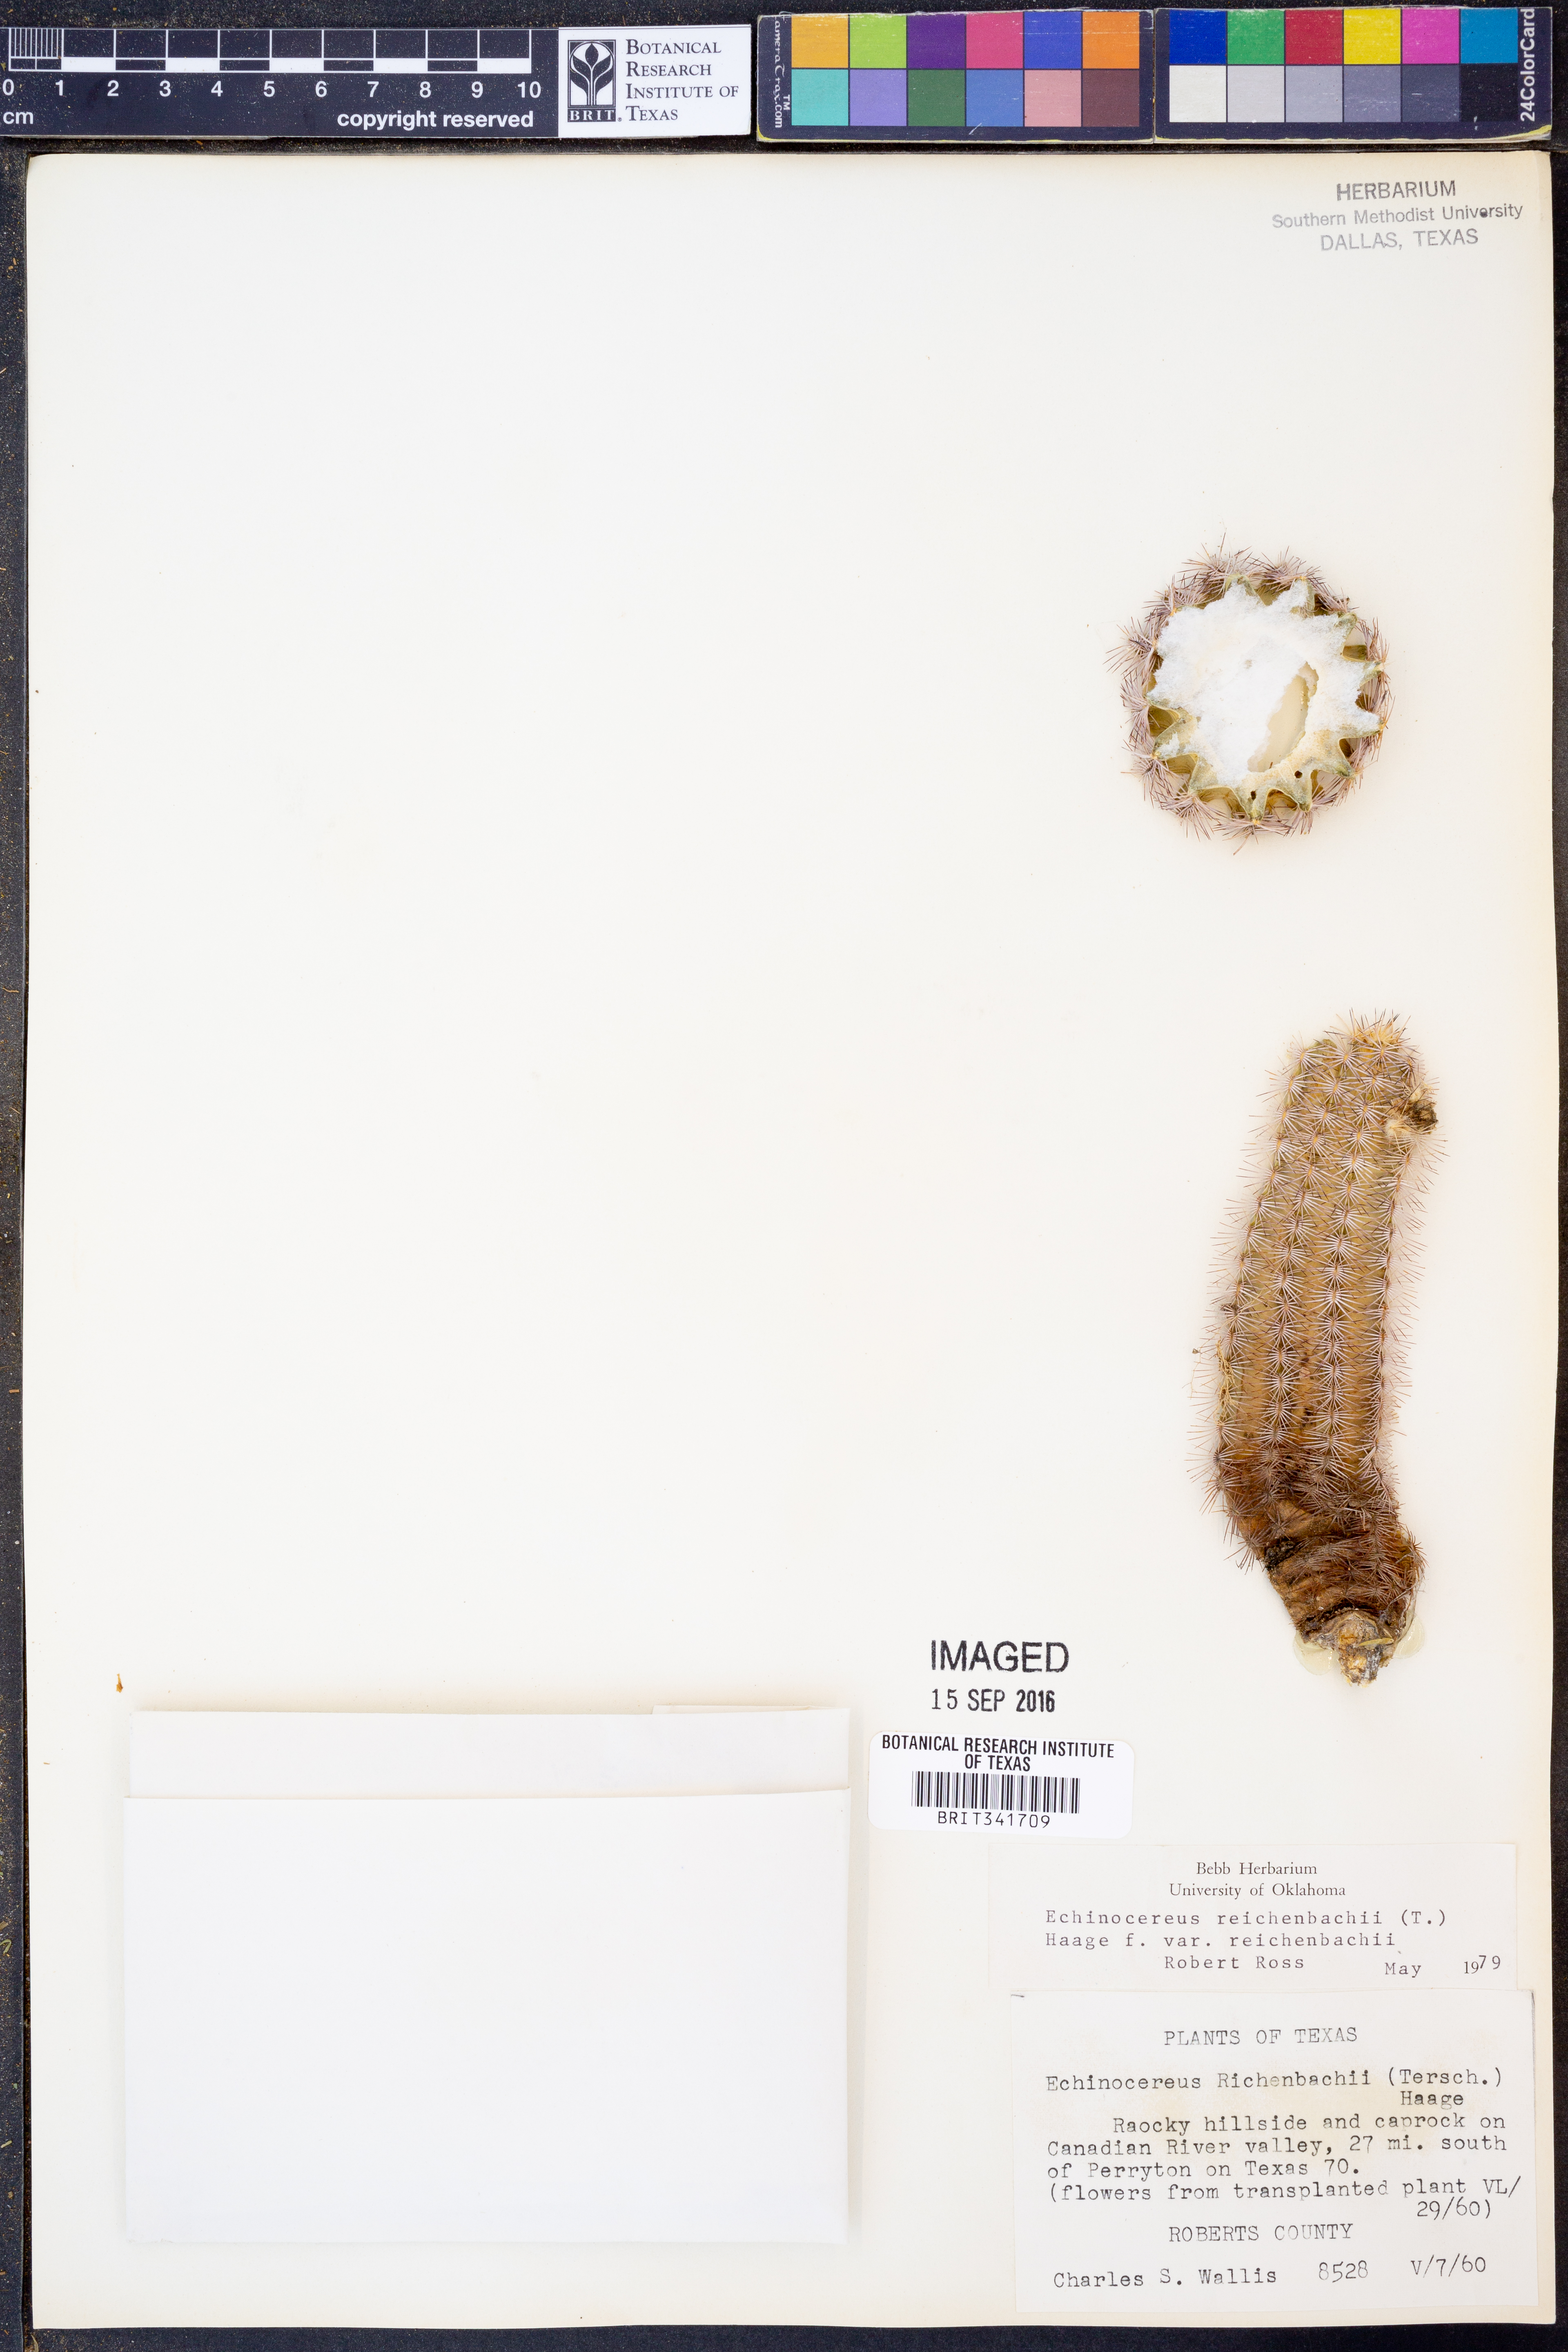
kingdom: Plantae
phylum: Tracheophyta
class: Magnoliopsida
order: Caryophyllales
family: Cactaceae
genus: Echinocereus
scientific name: Echinocereus reichenbachii
